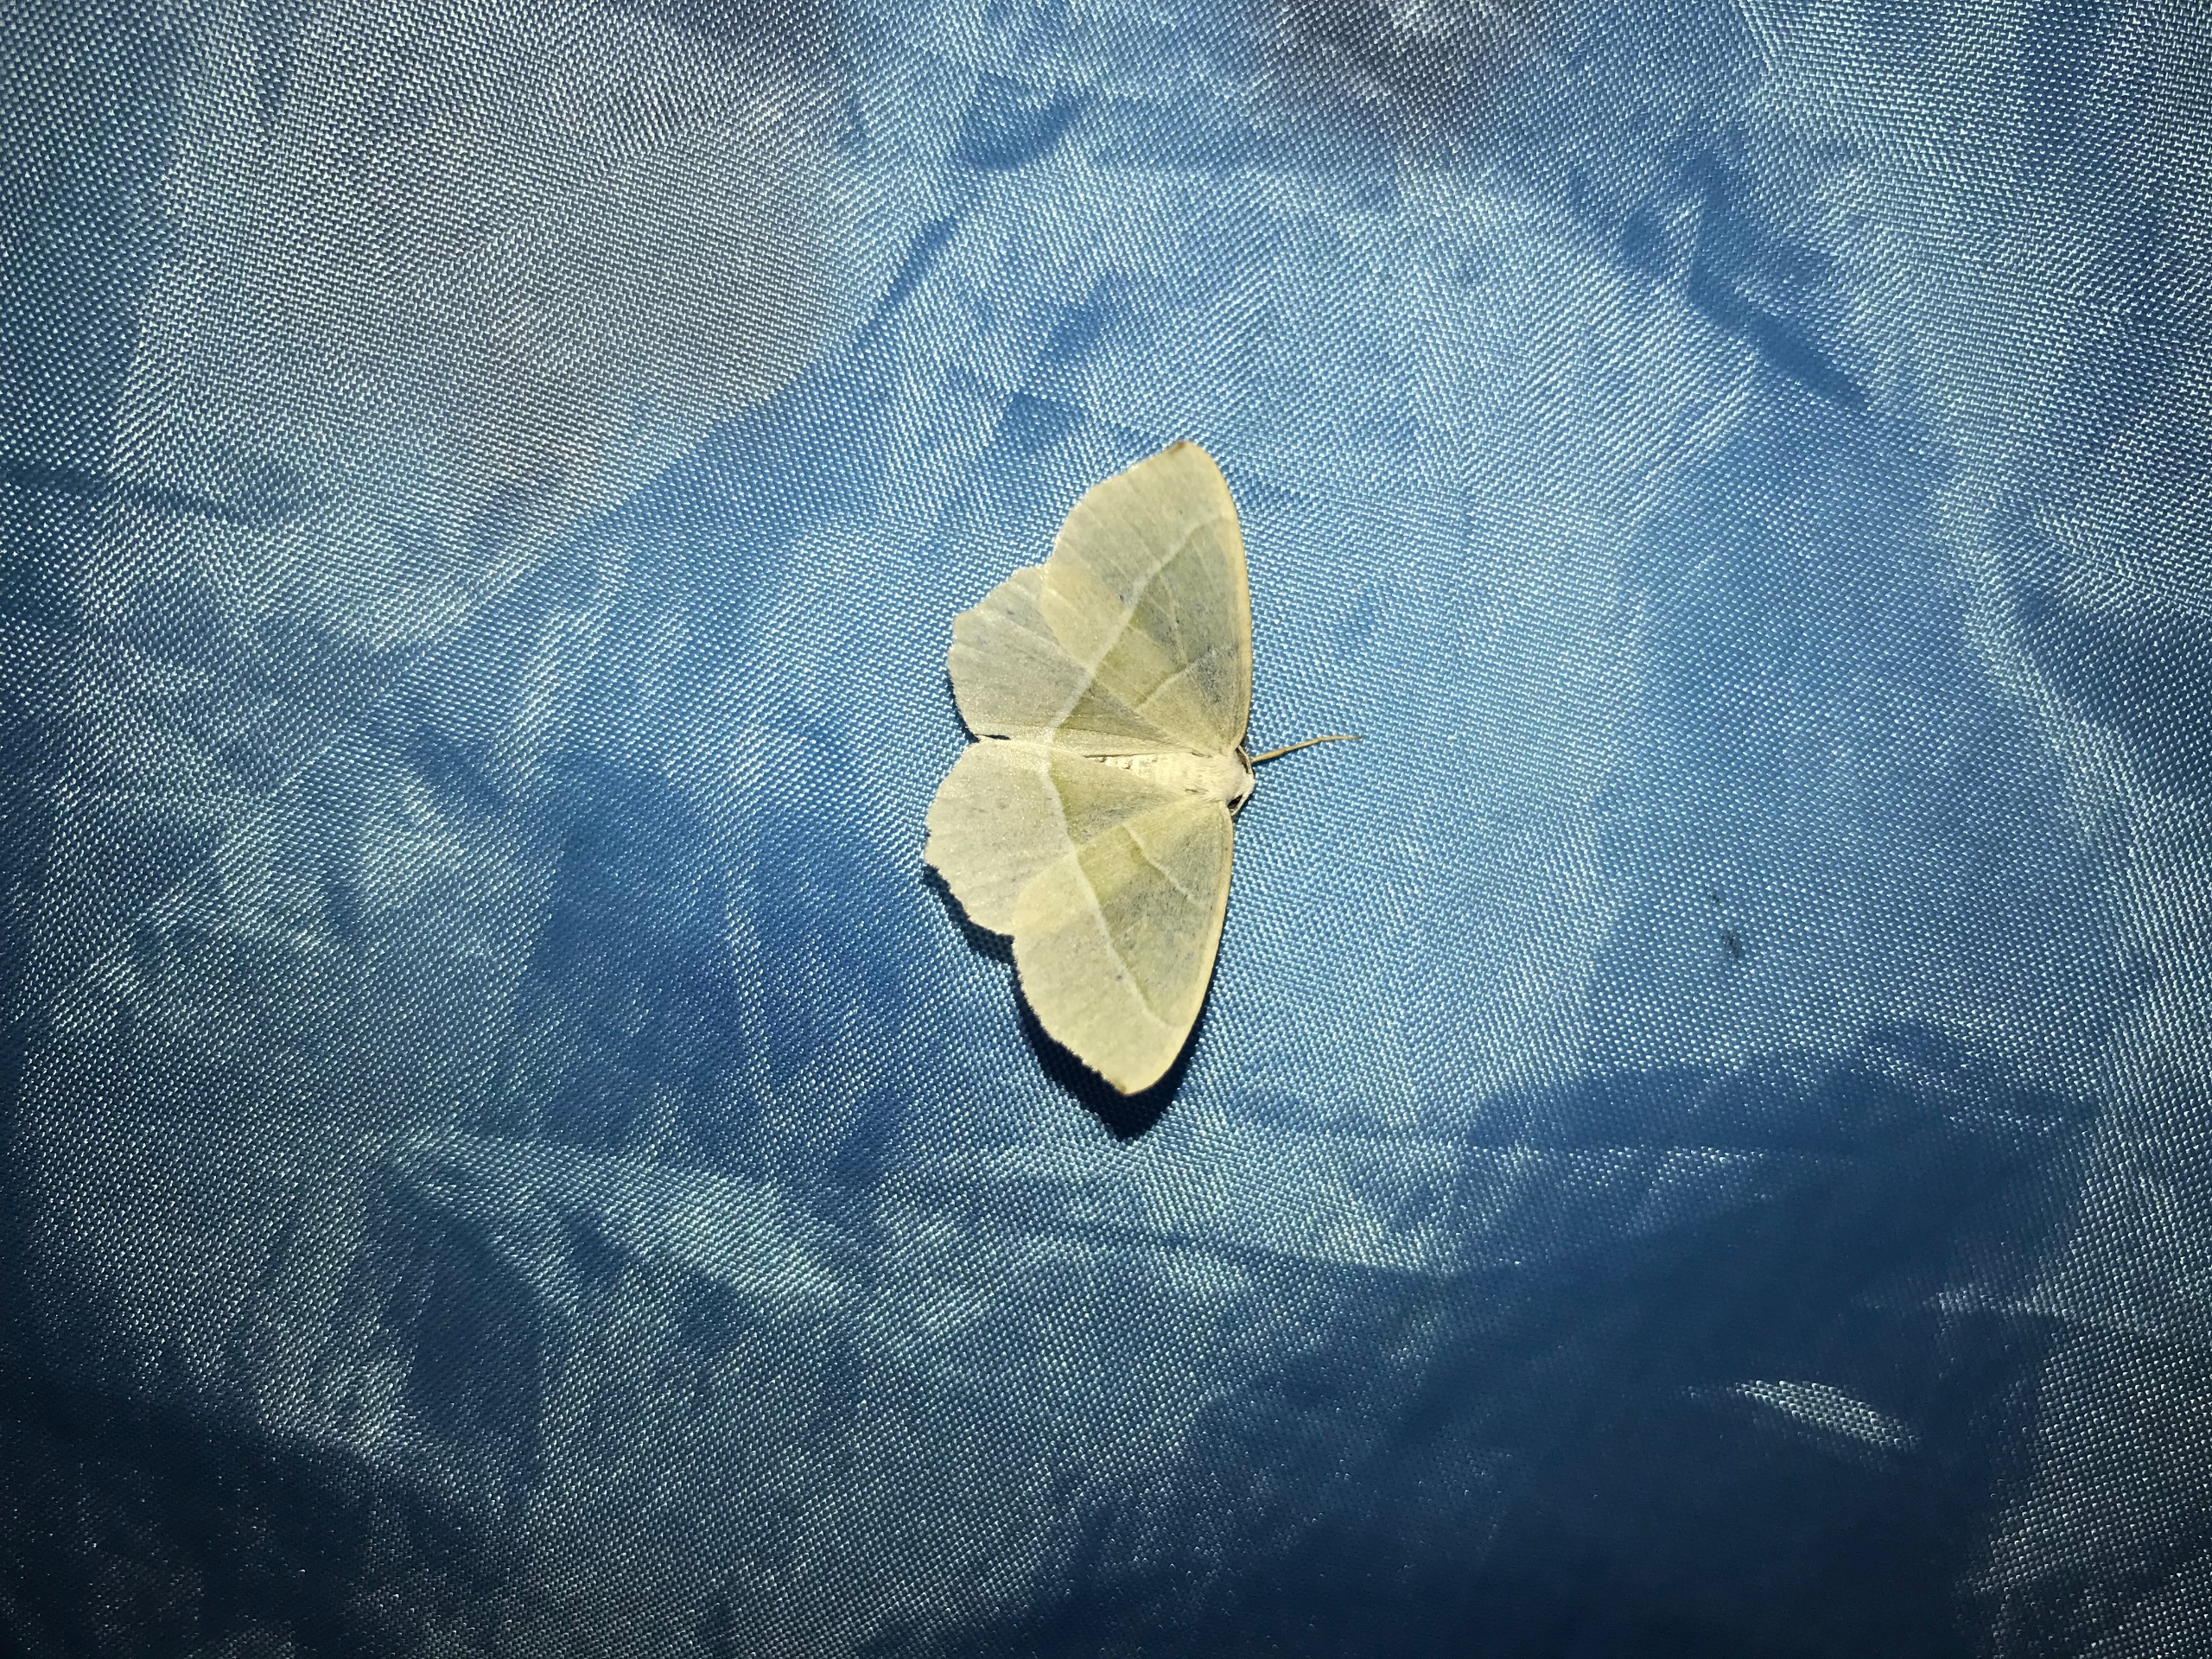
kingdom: Animalia
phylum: Arthropoda
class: Insecta
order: Lepidoptera
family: Geometridae
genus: Campaea
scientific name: Campaea margaritaria
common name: Perlemåler
